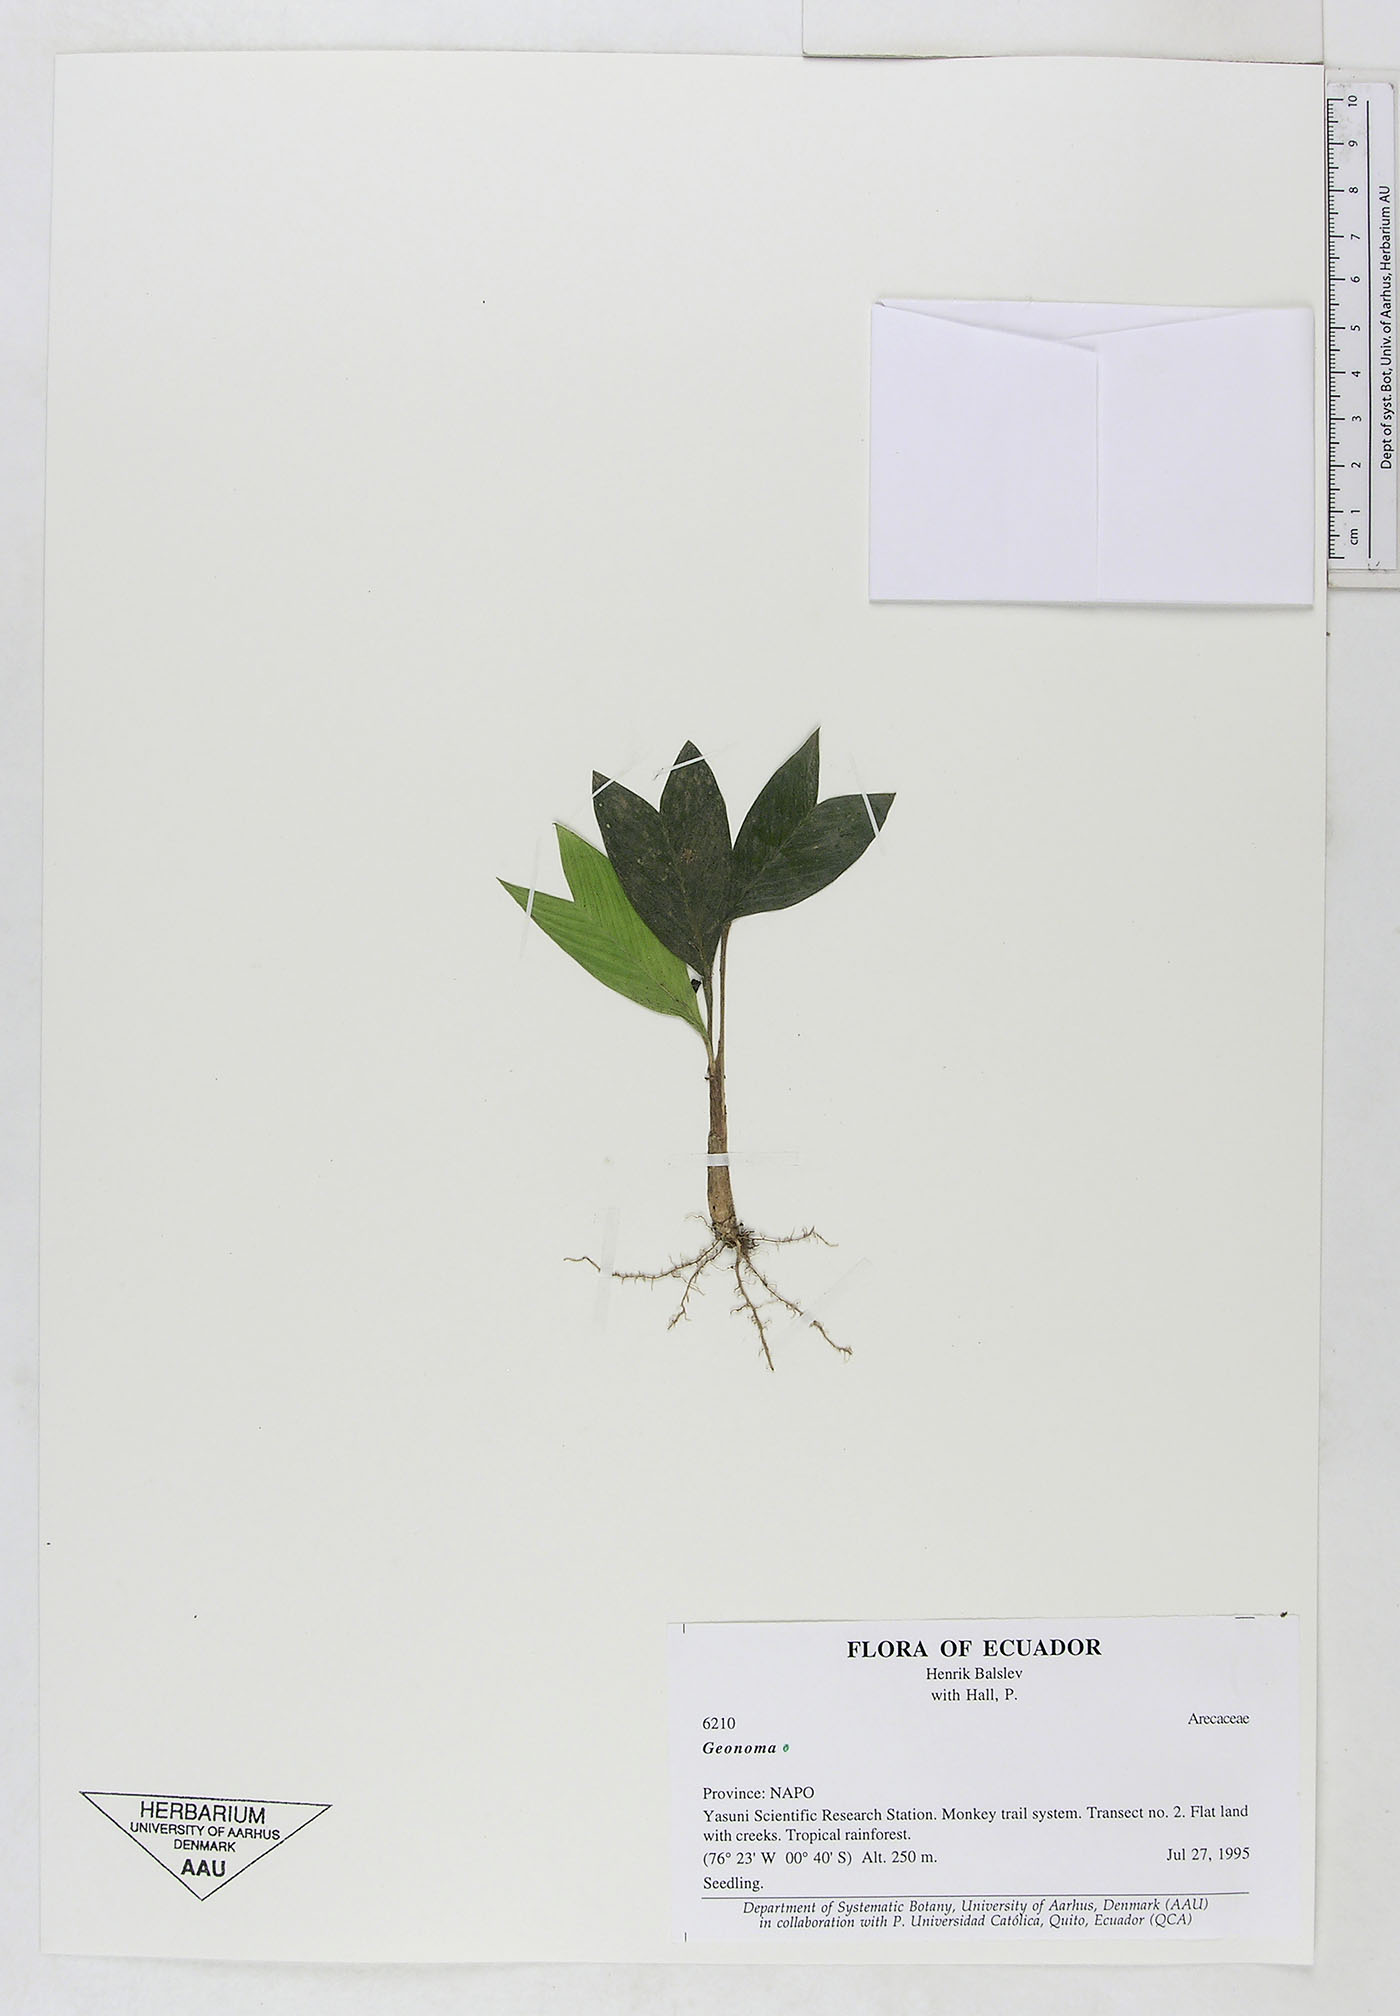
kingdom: Plantae
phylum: Tracheophyta
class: Liliopsida
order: Arecales
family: Arecaceae
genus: Geonoma
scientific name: Geonoma
